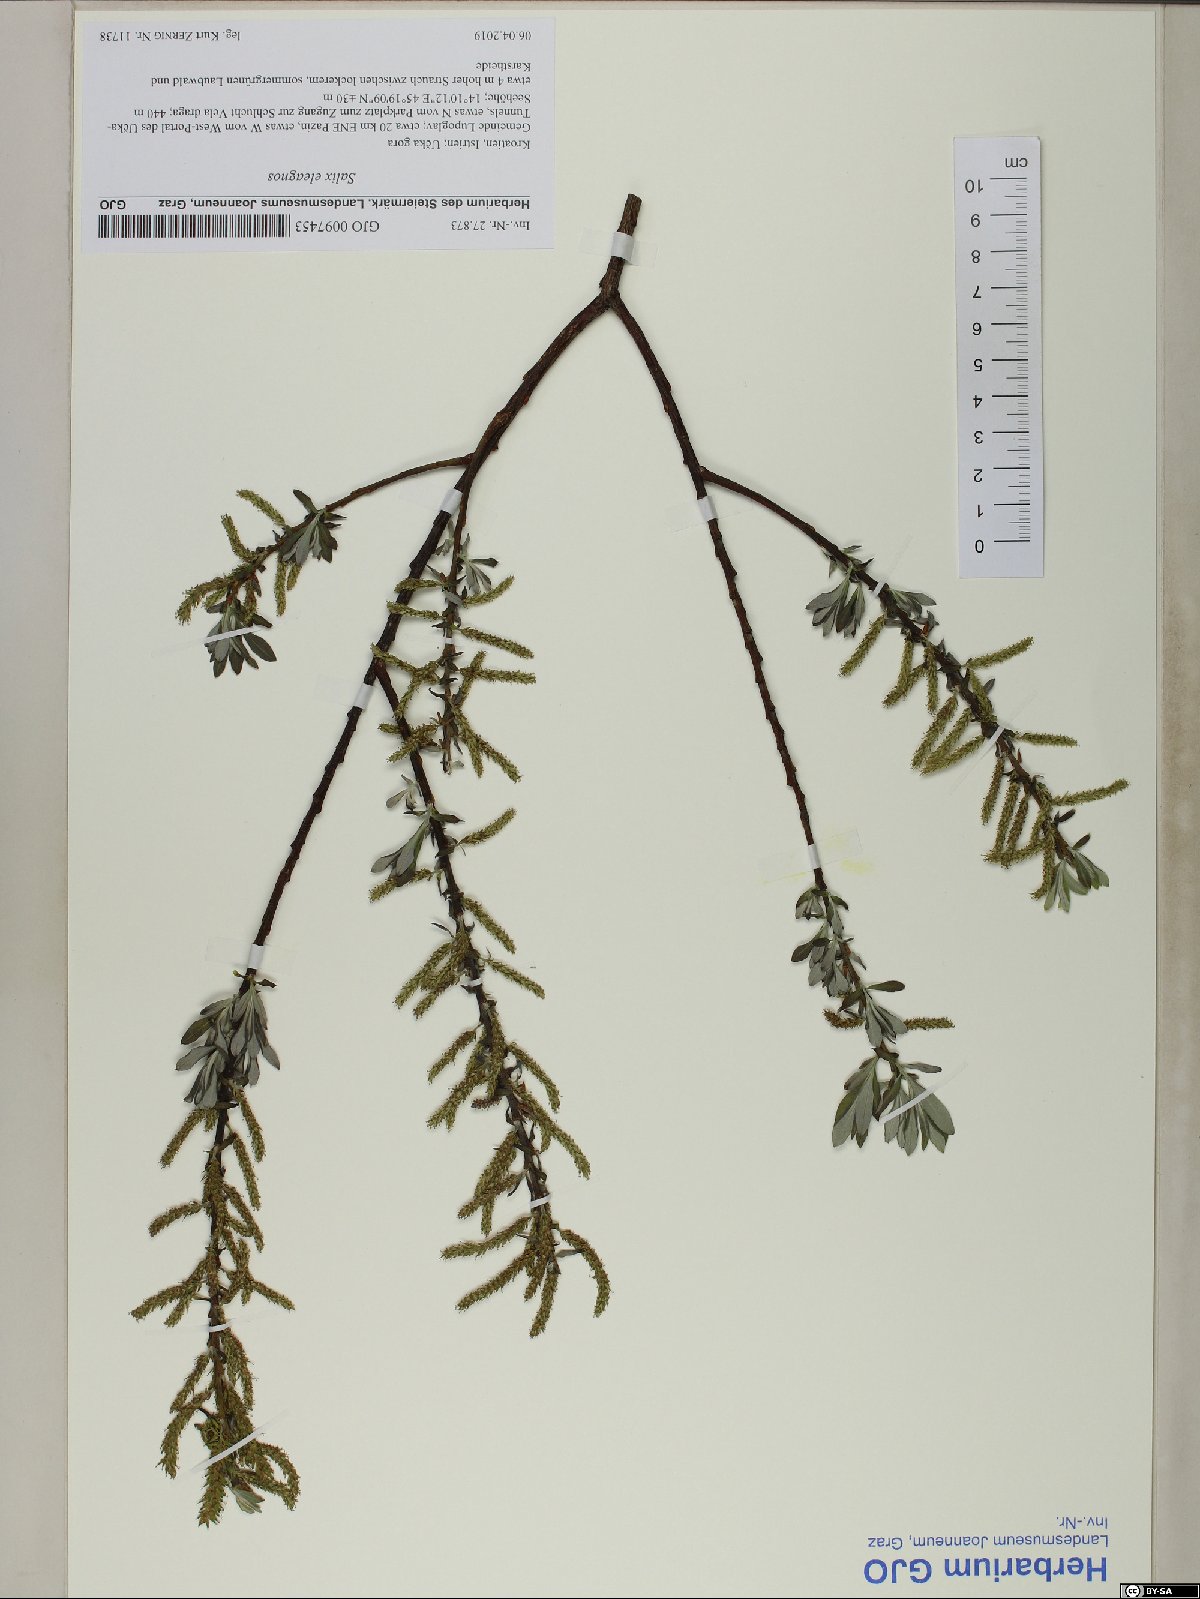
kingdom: Plantae
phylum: Tracheophyta
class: Magnoliopsida
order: Malpighiales
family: Salicaceae
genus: Salix
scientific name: Salix eleagnos
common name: Elaeagnus willow
